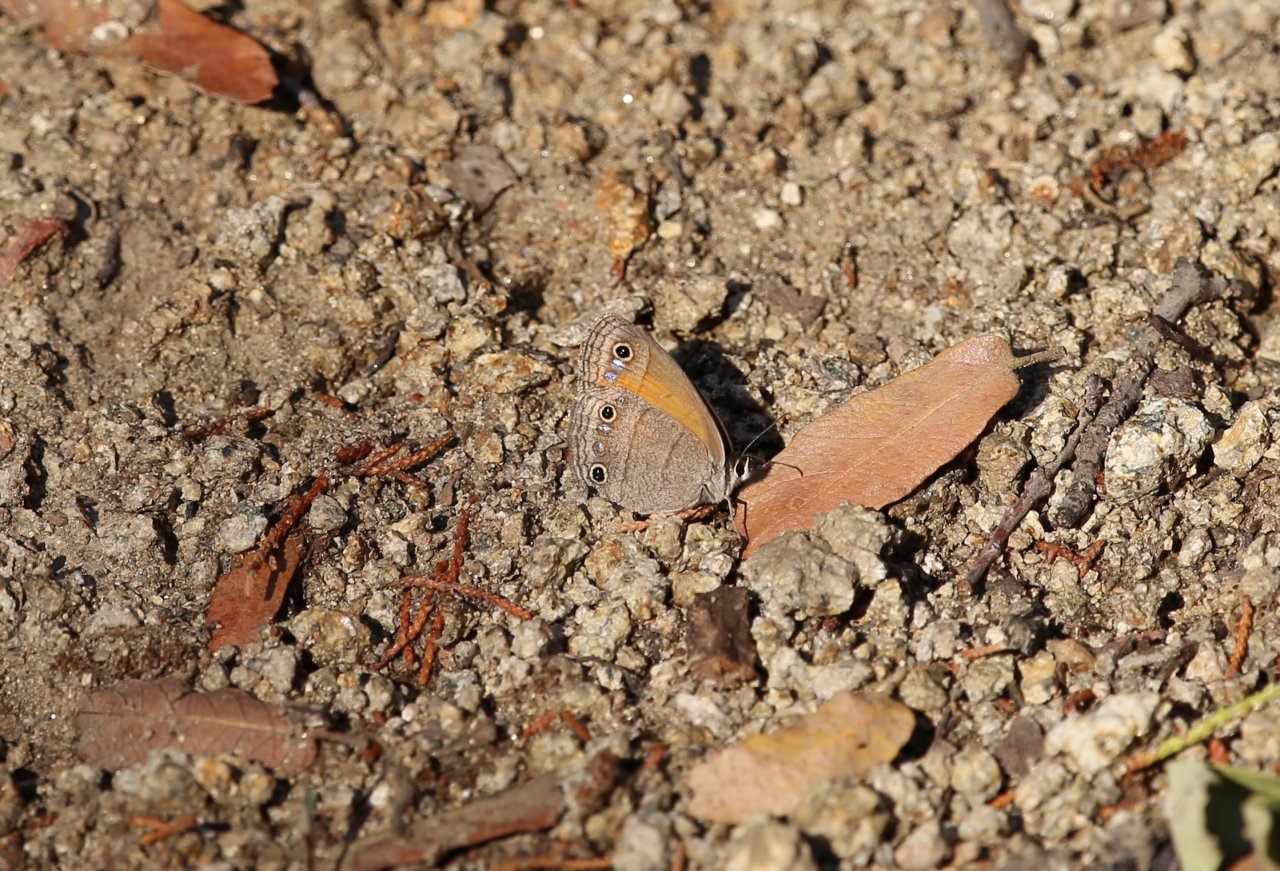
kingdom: Animalia
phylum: Arthropoda
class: Insecta
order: Lepidoptera
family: Nymphalidae
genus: Euptychia
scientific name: Euptychia rubricata
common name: Red Satyr
